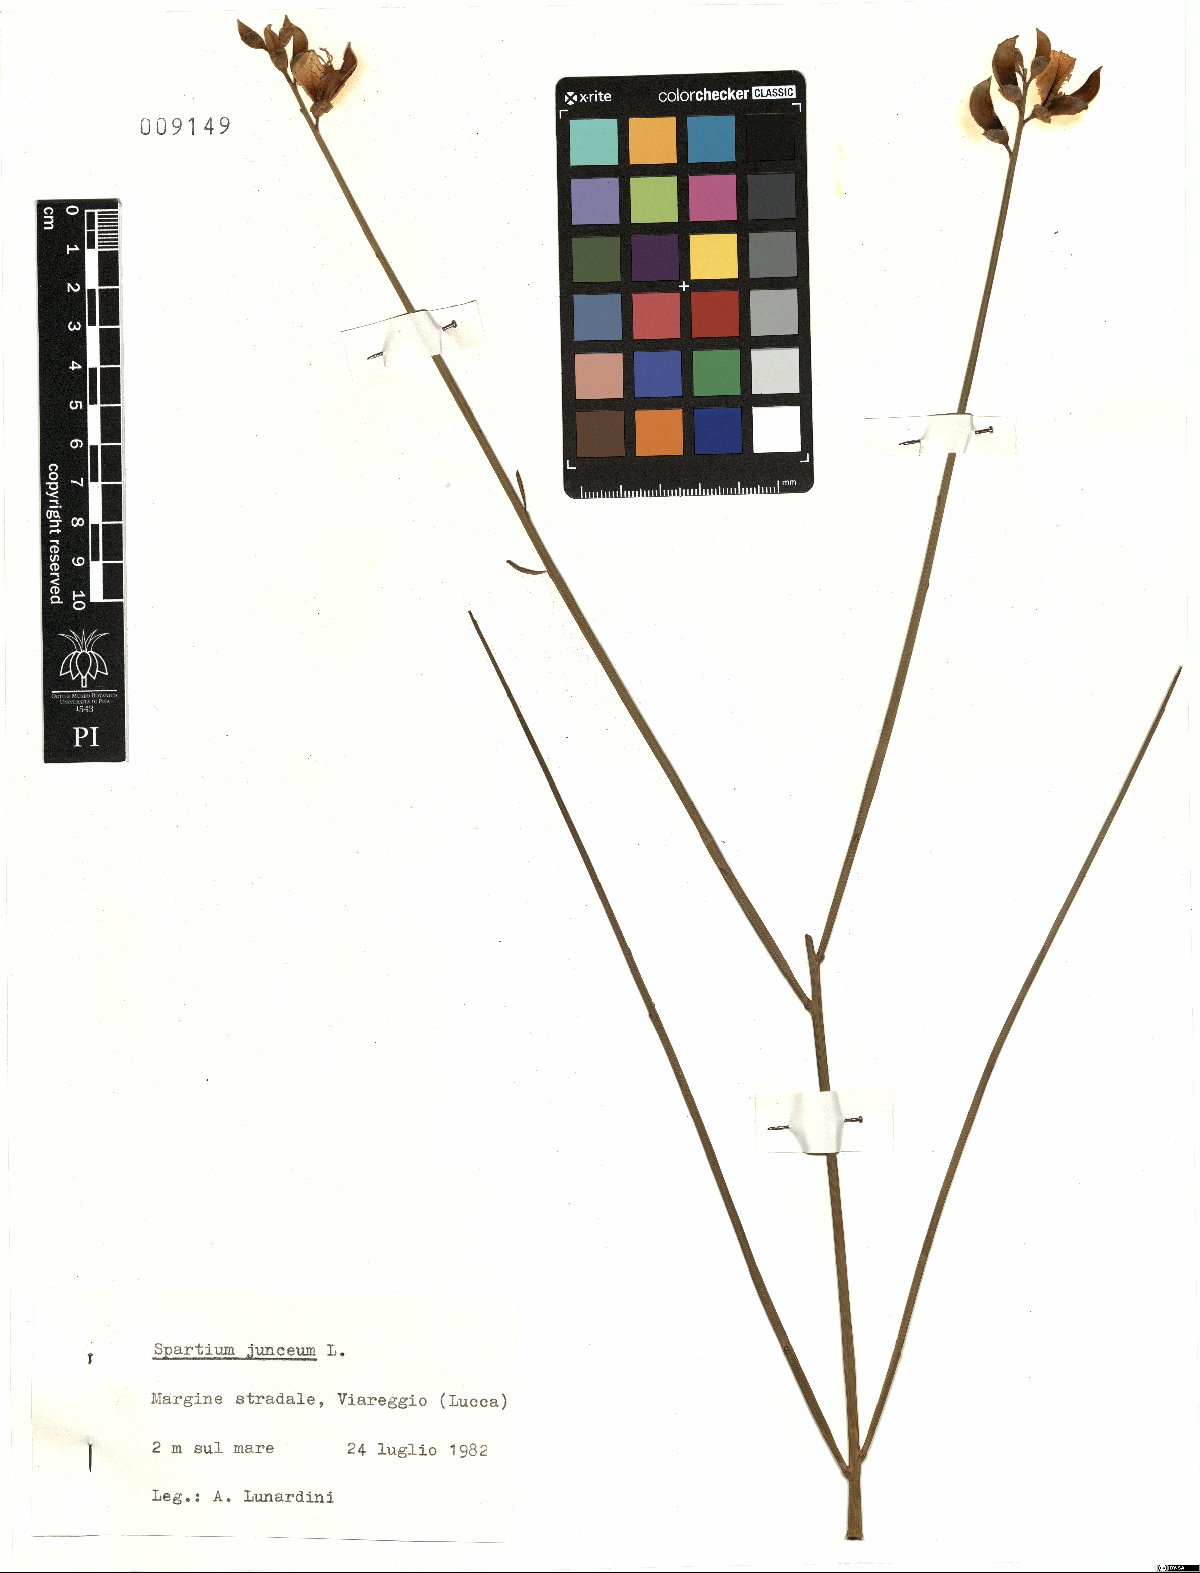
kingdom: Plantae
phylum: Tracheophyta
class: Magnoliopsida
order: Fabales
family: Fabaceae
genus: Spartium
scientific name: Spartium junceum
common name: Spanish broom
